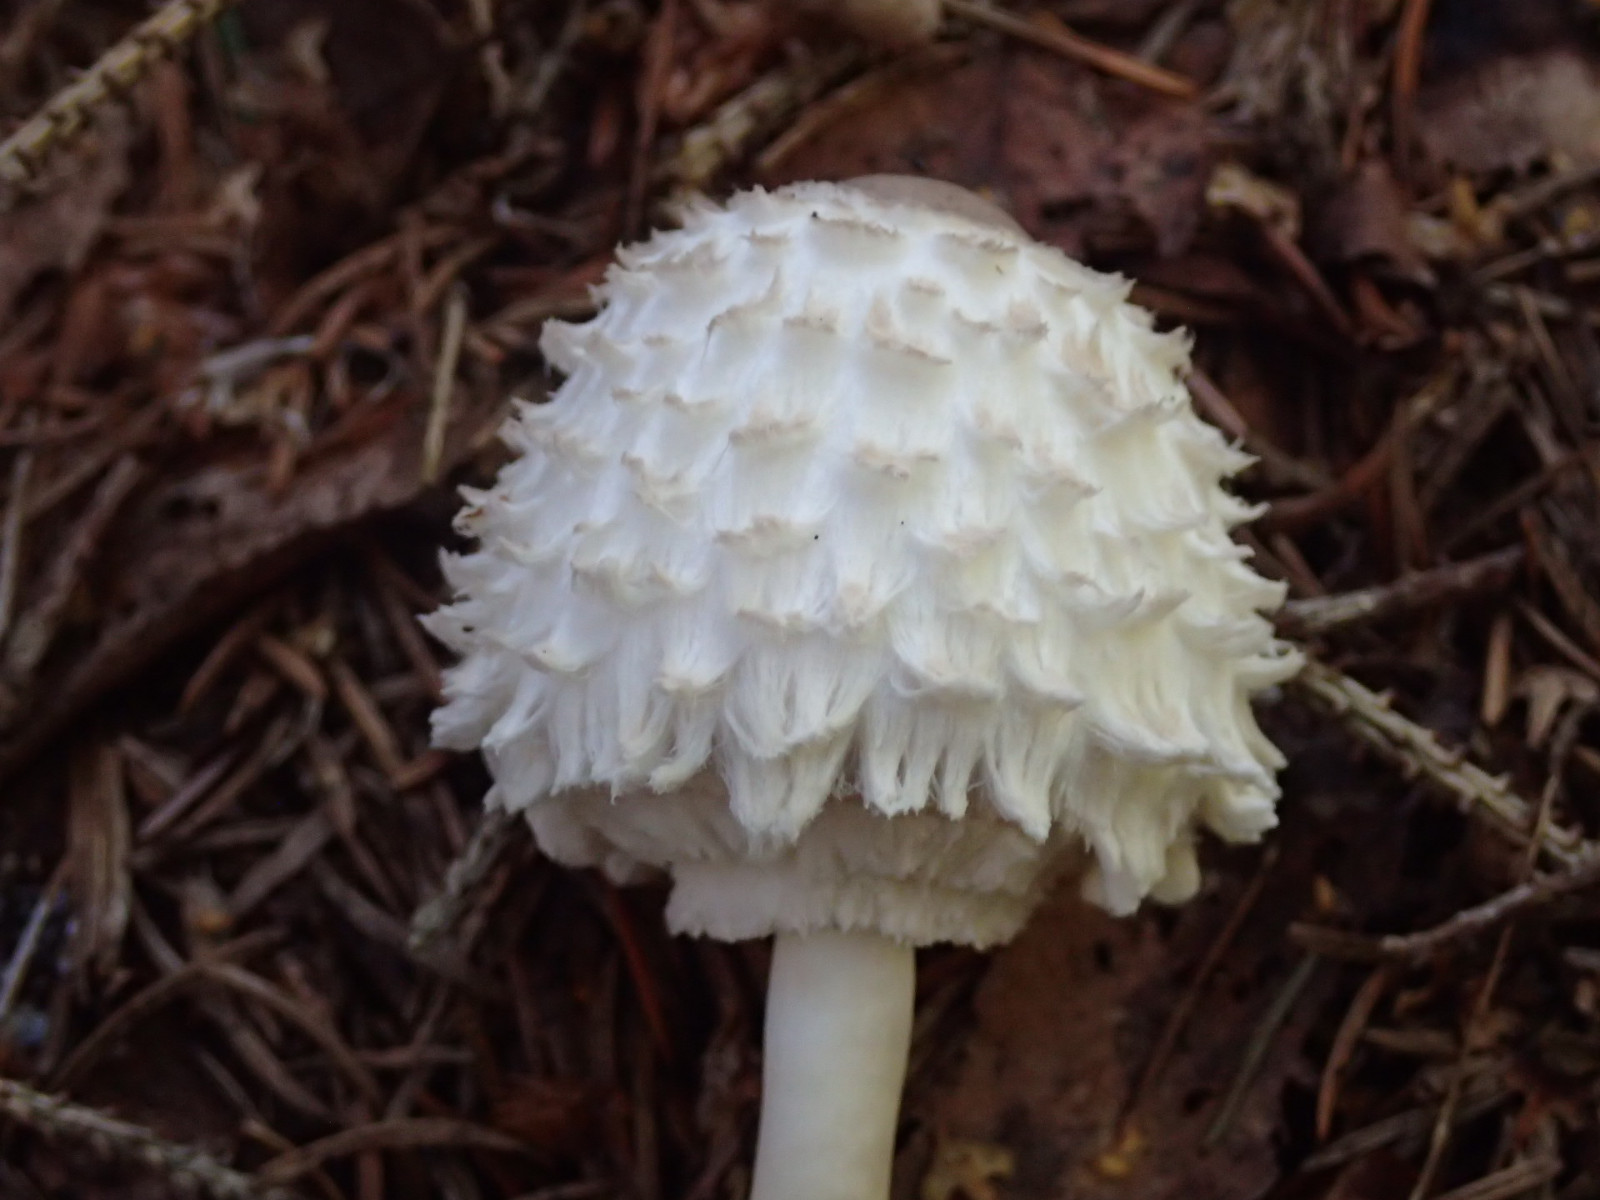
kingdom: Fungi
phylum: Basidiomycota
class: Agaricomycetes
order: Agaricales
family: Agaricaceae
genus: Leucoagaricus
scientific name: Leucoagaricus nympharum
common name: gran-silkehat
